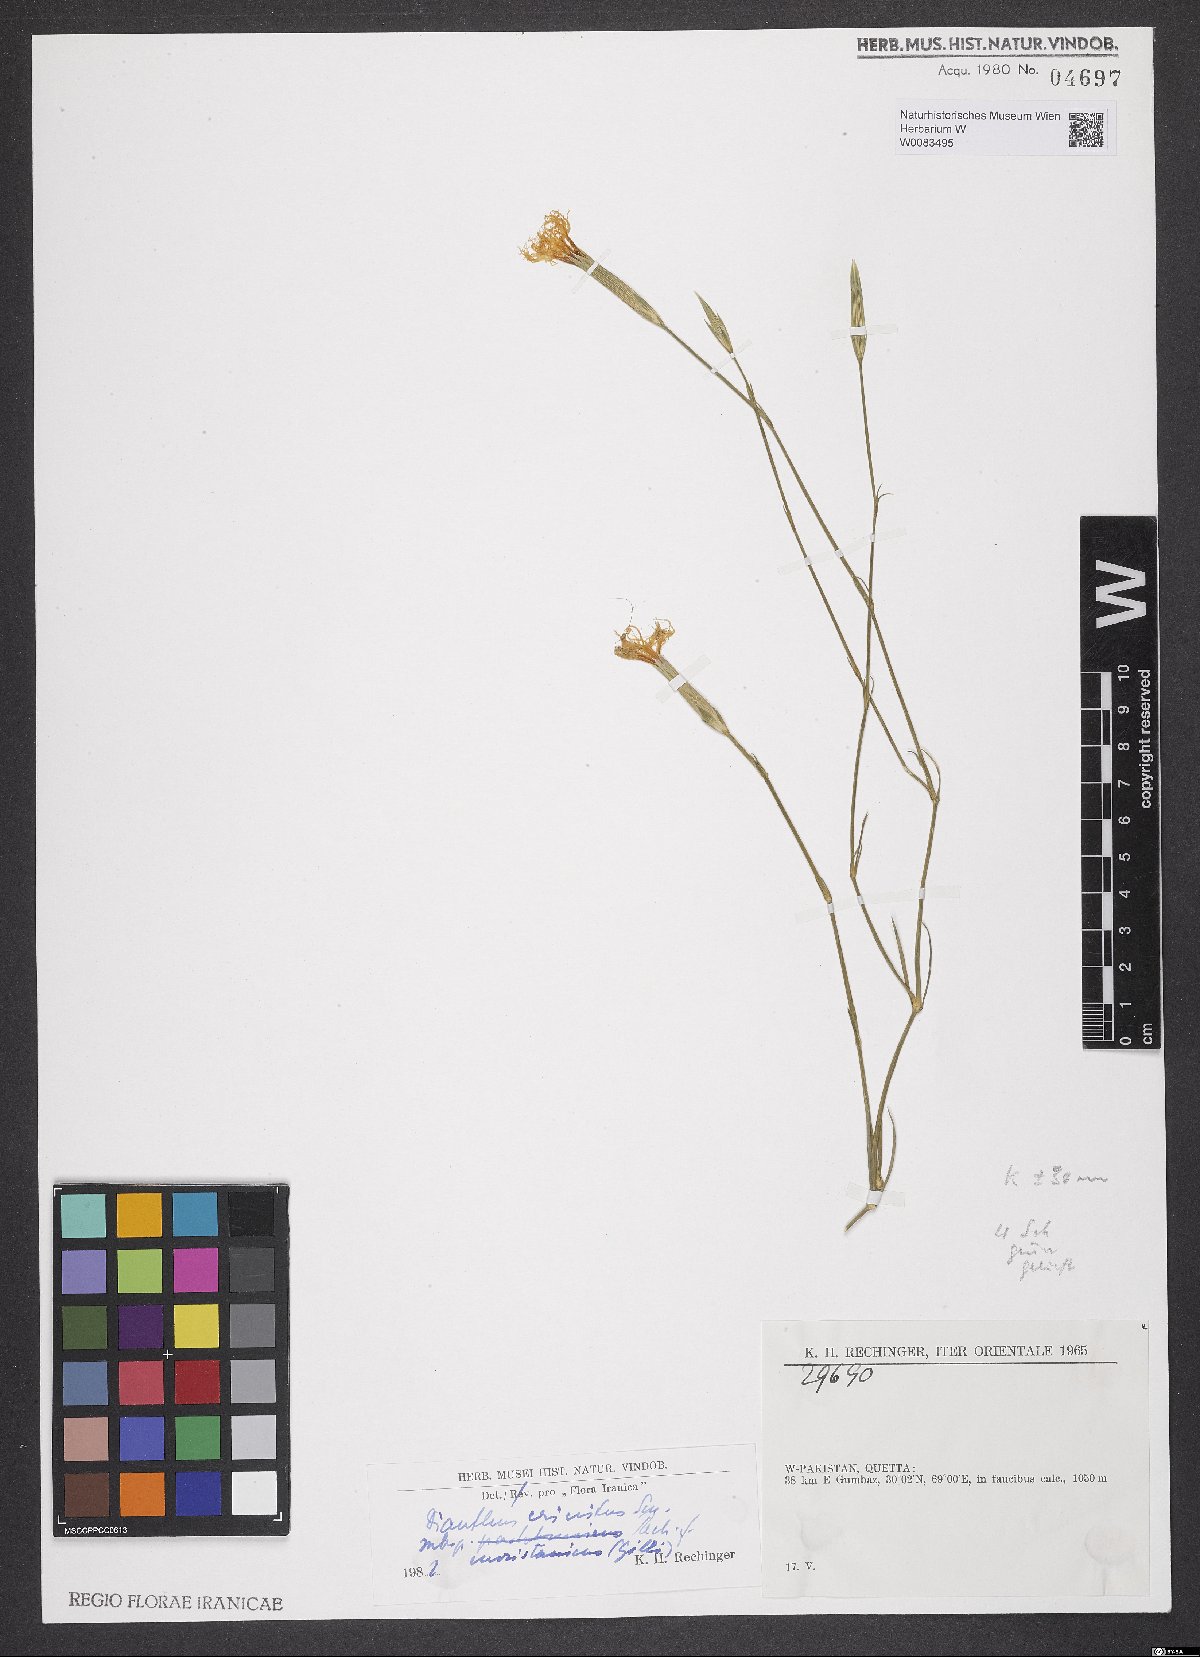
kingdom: Plantae
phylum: Tracheophyta
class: Magnoliopsida
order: Caryophyllales
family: Caryophyllaceae
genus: Dianthus
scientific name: Dianthus crinitus
